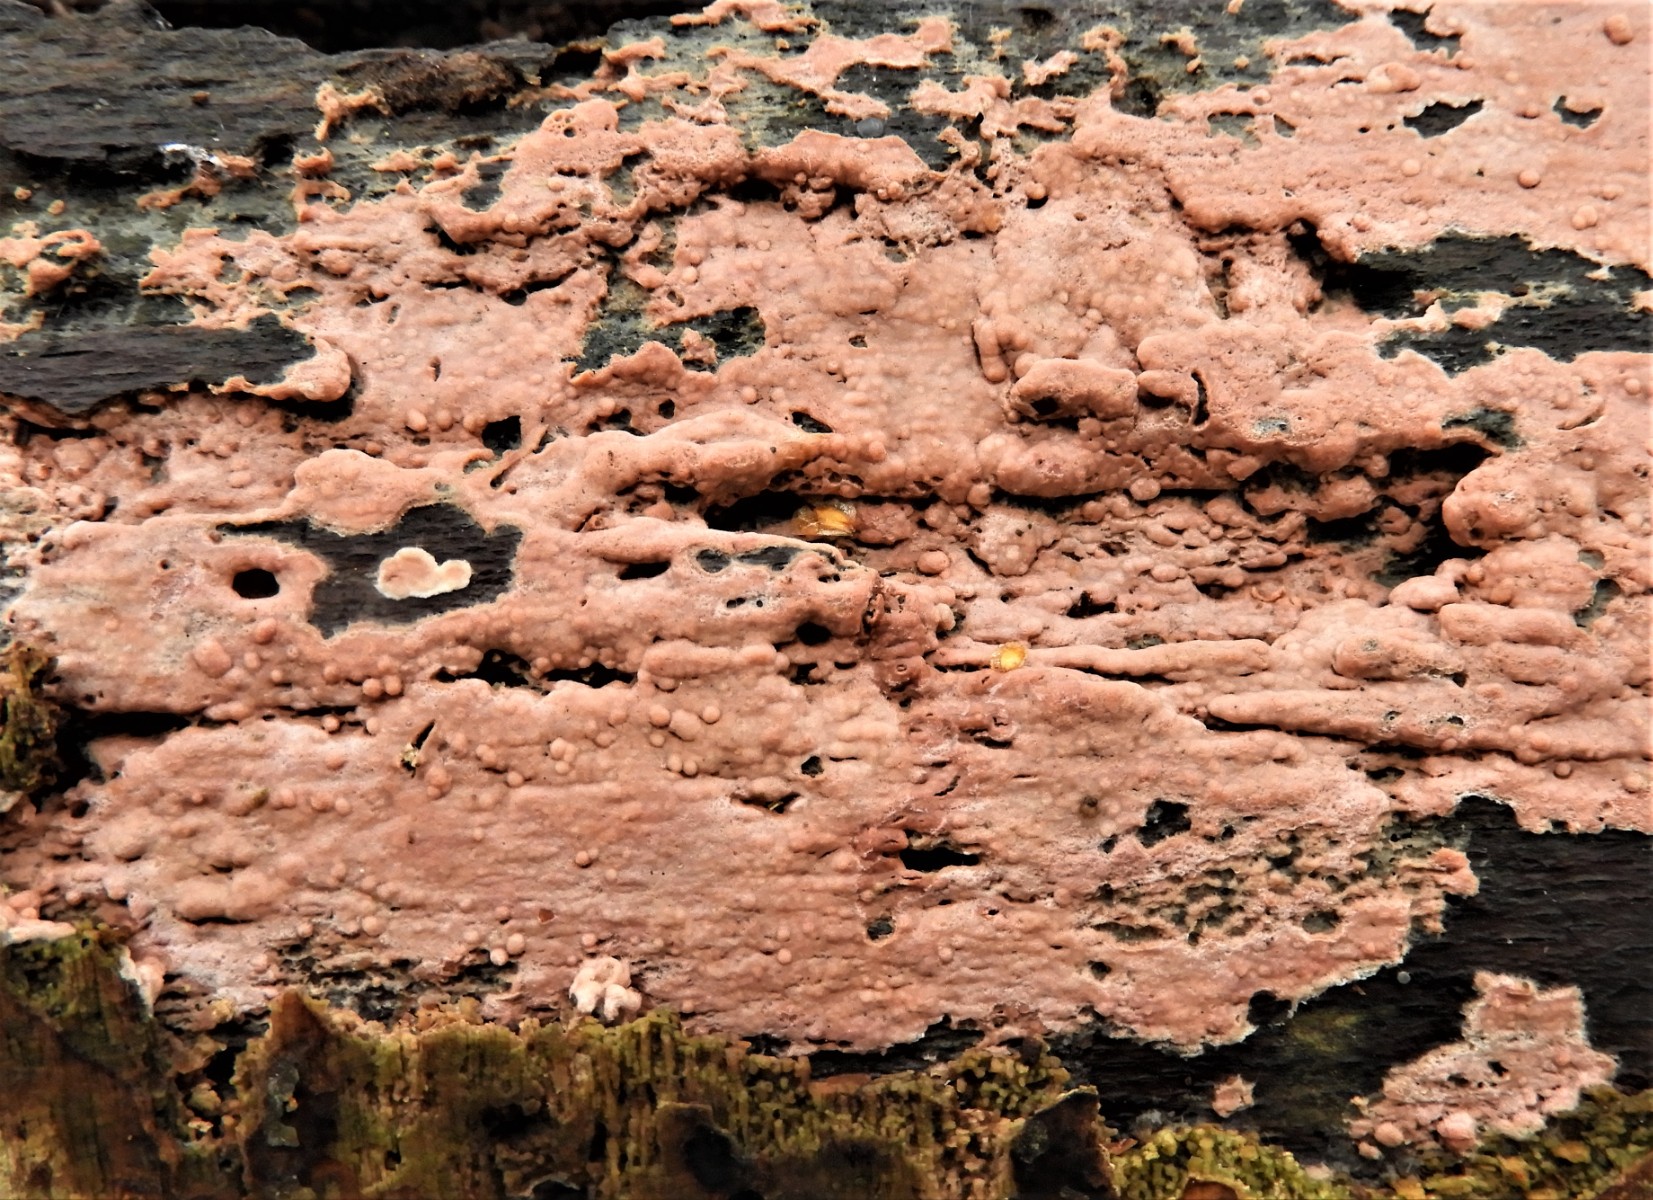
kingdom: Fungi
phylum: Basidiomycota
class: Agaricomycetes
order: Russulales
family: Peniophoraceae
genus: Peniophora
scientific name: Peniophora incarnata
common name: laksefarvet voksskind
